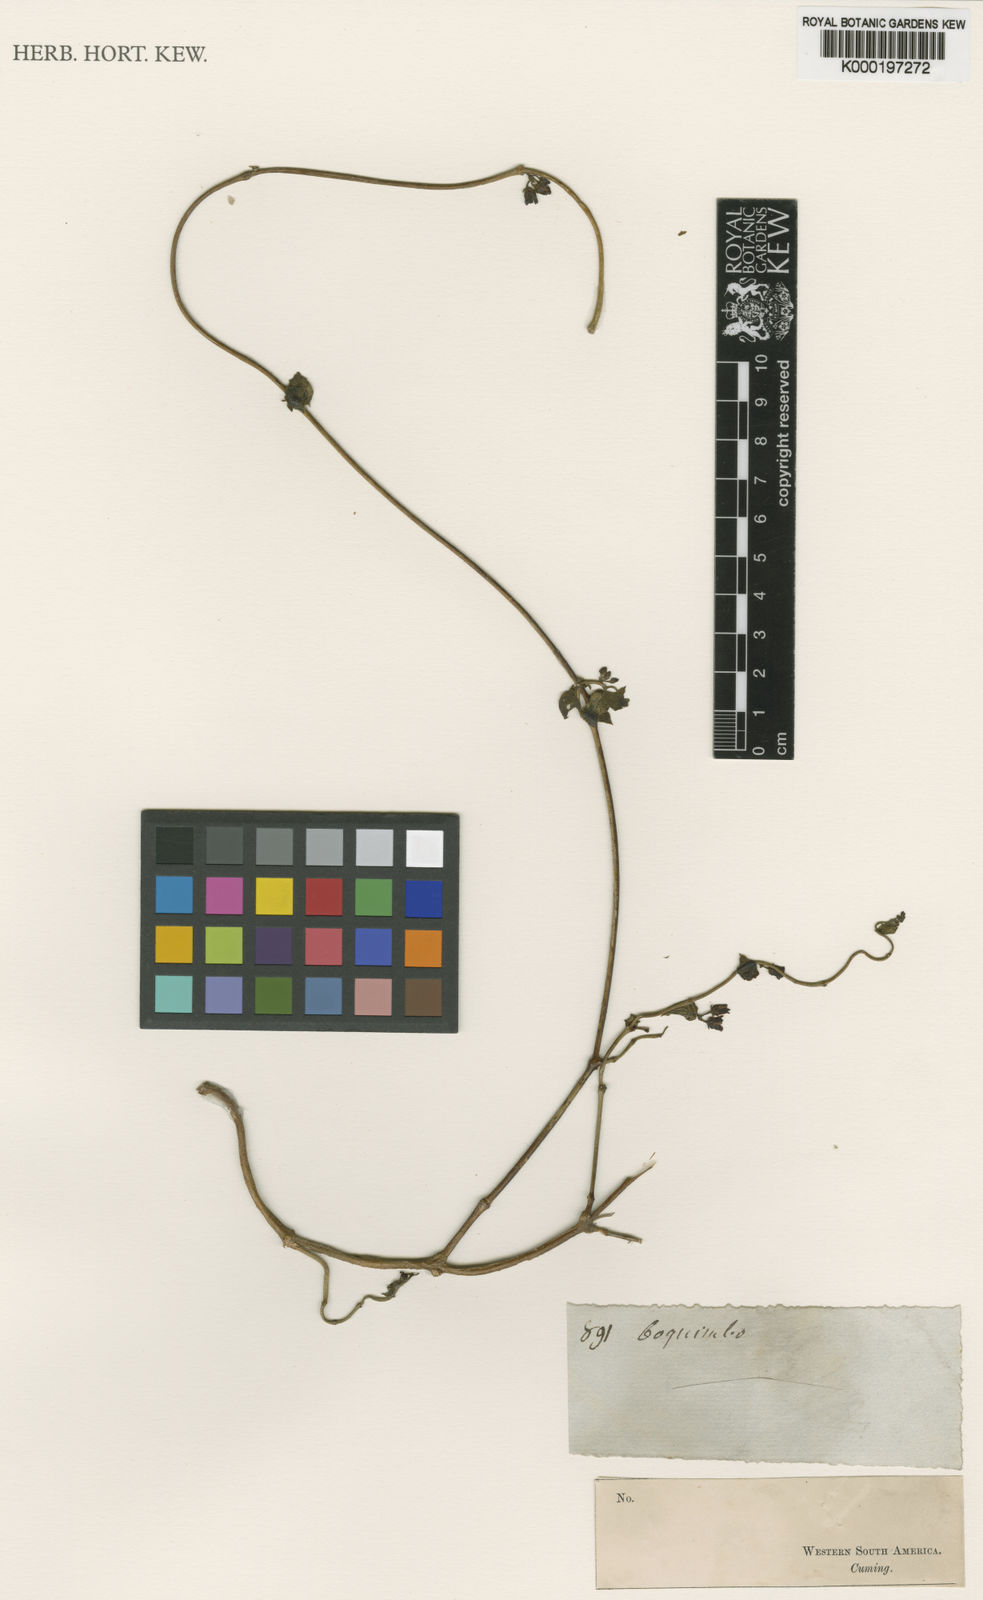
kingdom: Plantae
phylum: Tracheophyta
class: Magnoliopsida
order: Gentianales
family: Apocynaceae
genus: Diplolepis
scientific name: Diplolepis boerhaviifolia
